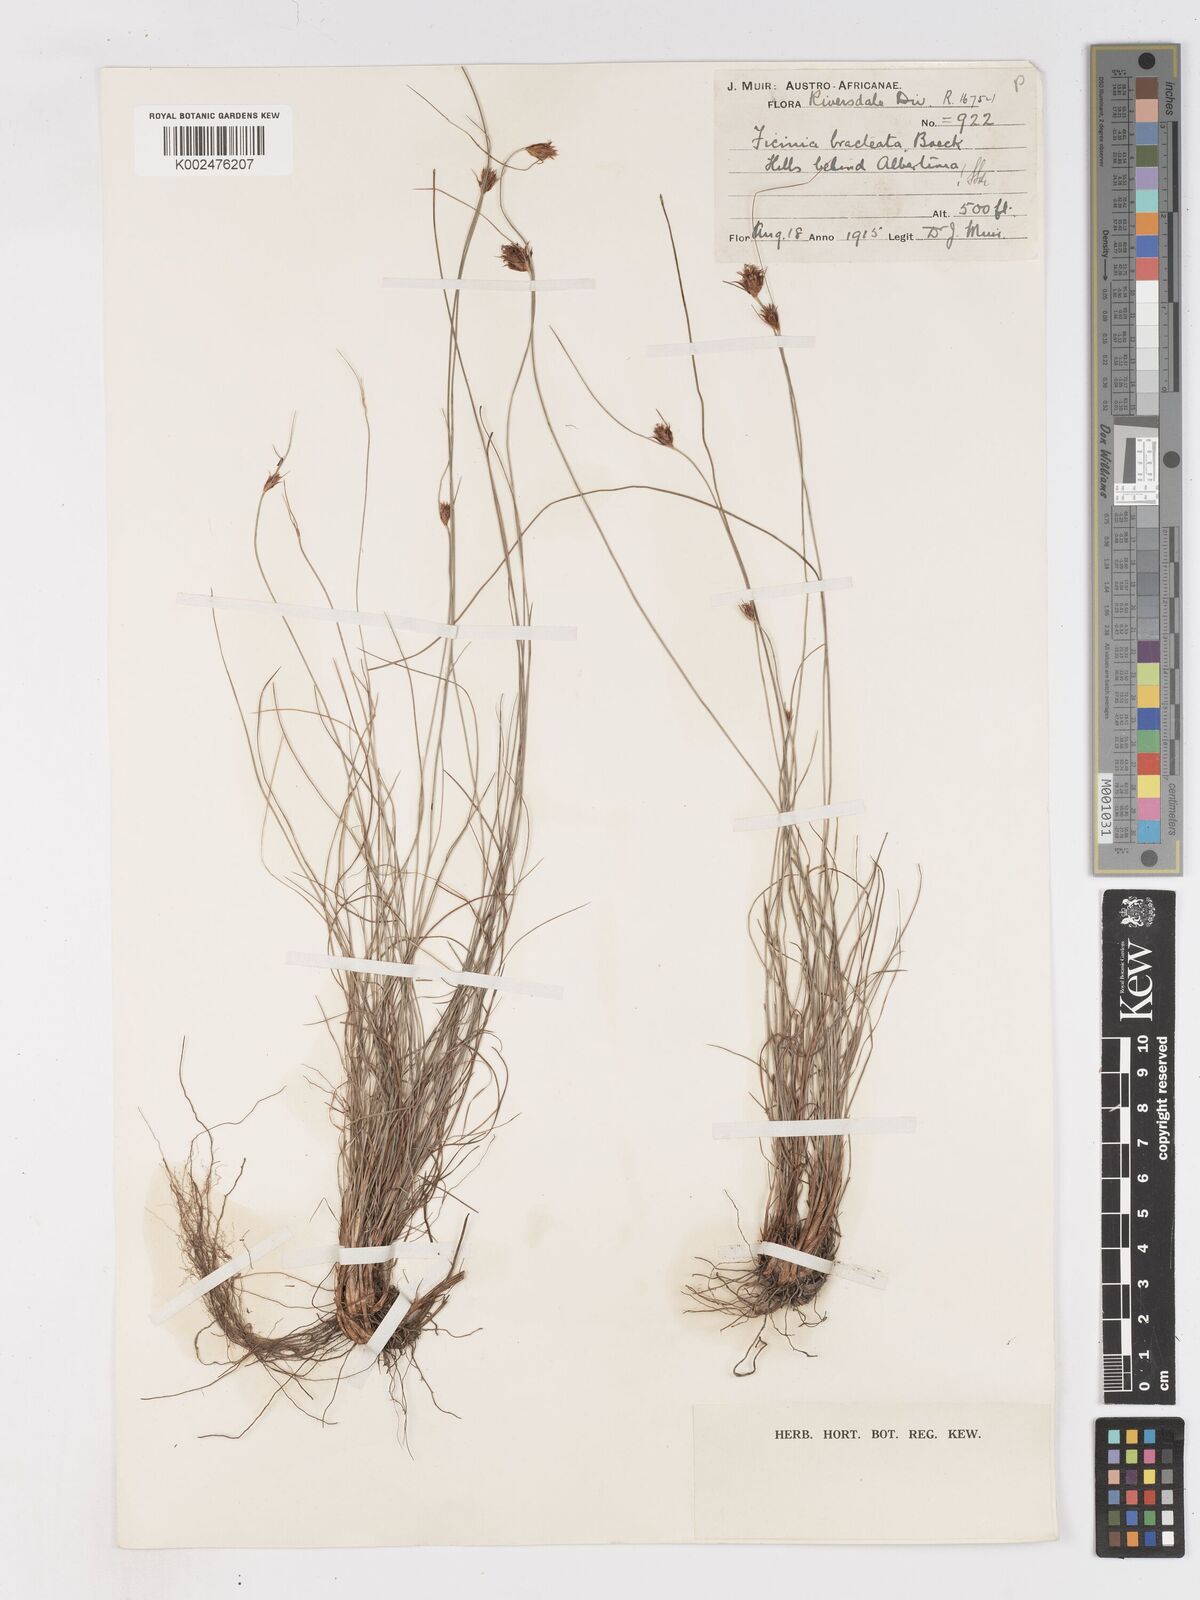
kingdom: Plantae
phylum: Tracheophyta
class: Liliopsida
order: Poales
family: Cyperaceae
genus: Ficinia
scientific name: Ficinia nigrescens
